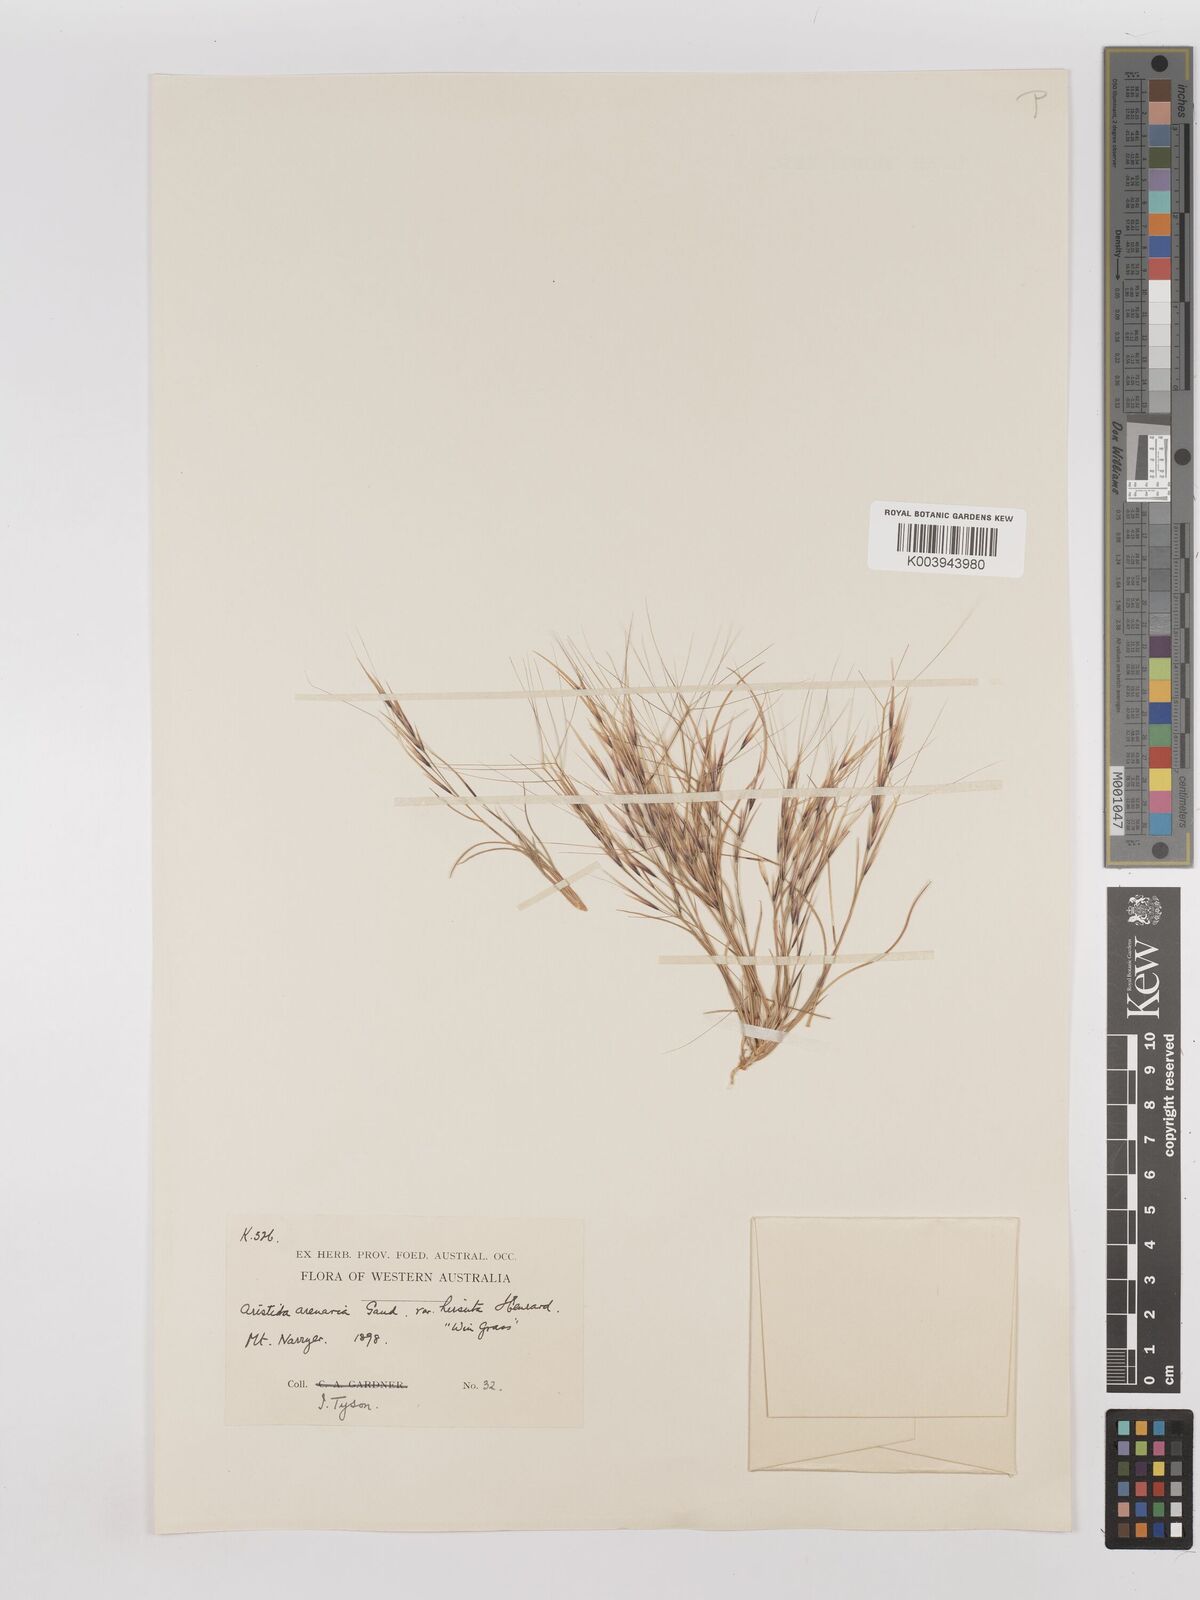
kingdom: Plantae
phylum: Tracheophyta
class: Liliopsida
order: Poales
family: Poaceae
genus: Aristida
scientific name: Aristida contorta
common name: Bunch kerosene grass
